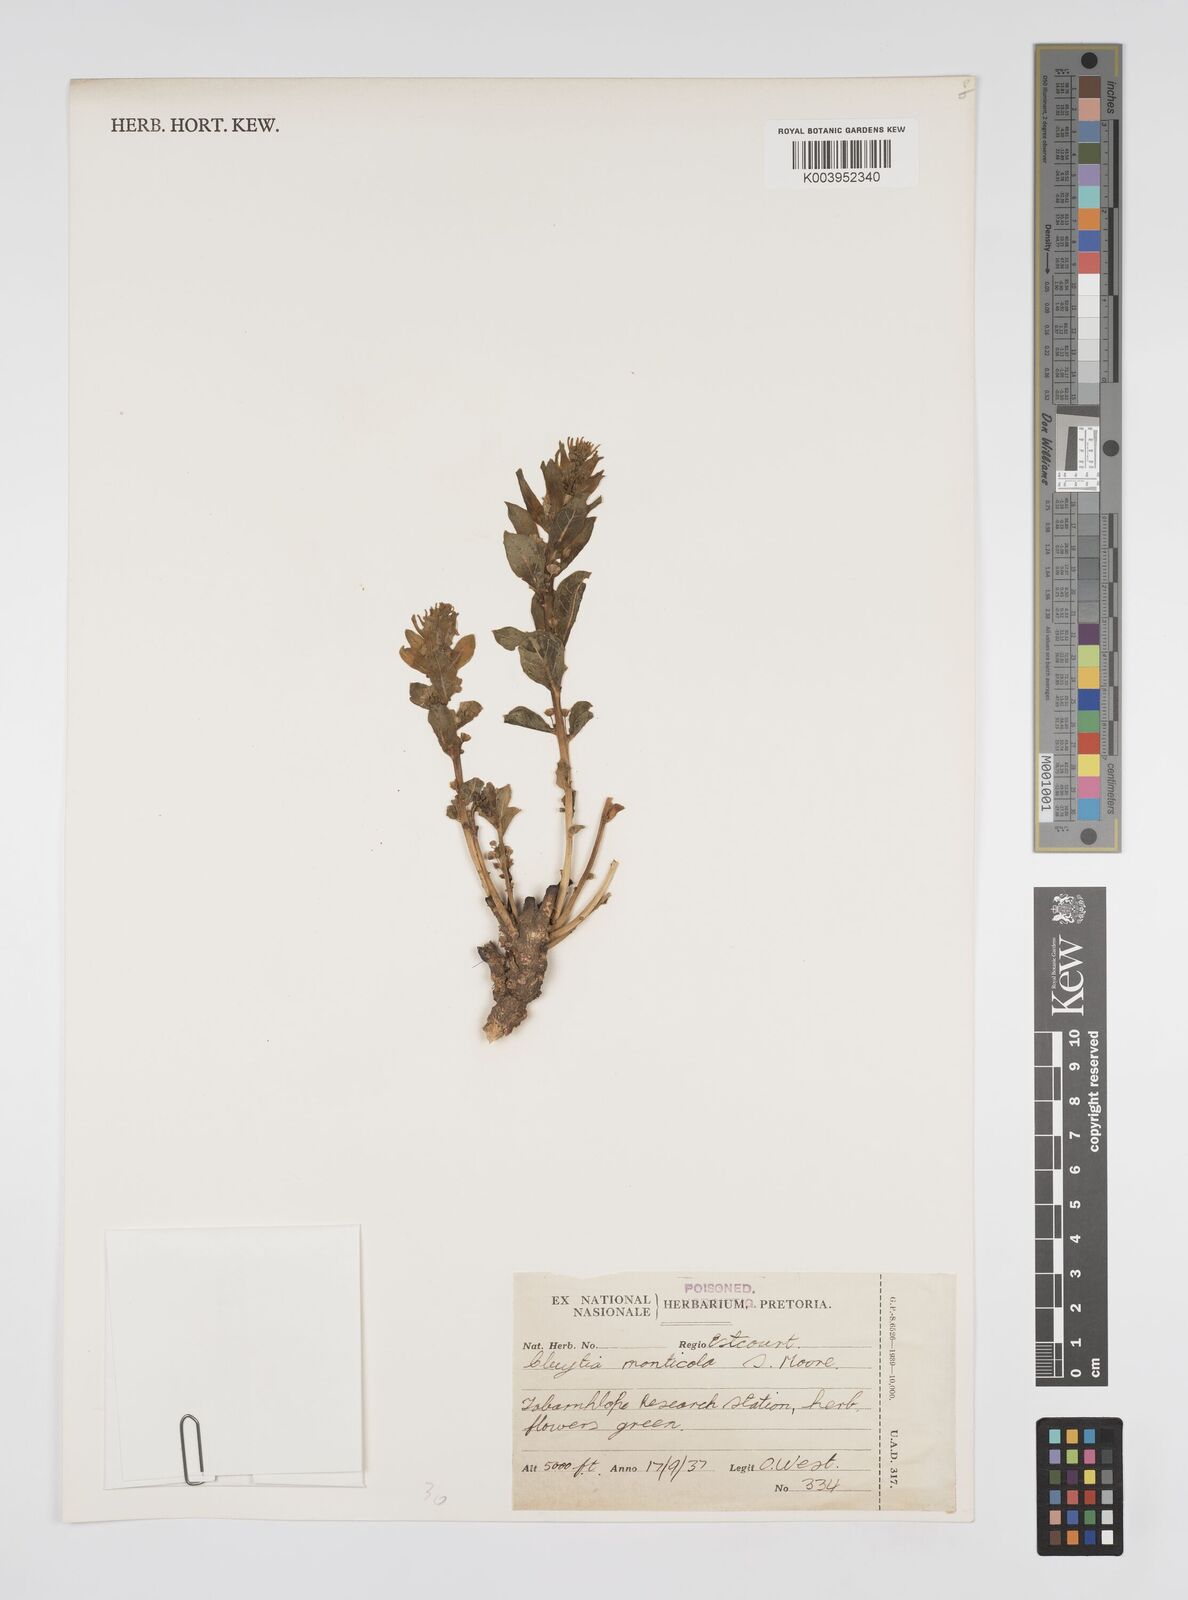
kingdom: Plantae
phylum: Tracheophyta
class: Magnoliopsida
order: Malpighiales
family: Peraceae
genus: Clutia
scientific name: Clutia monticola
